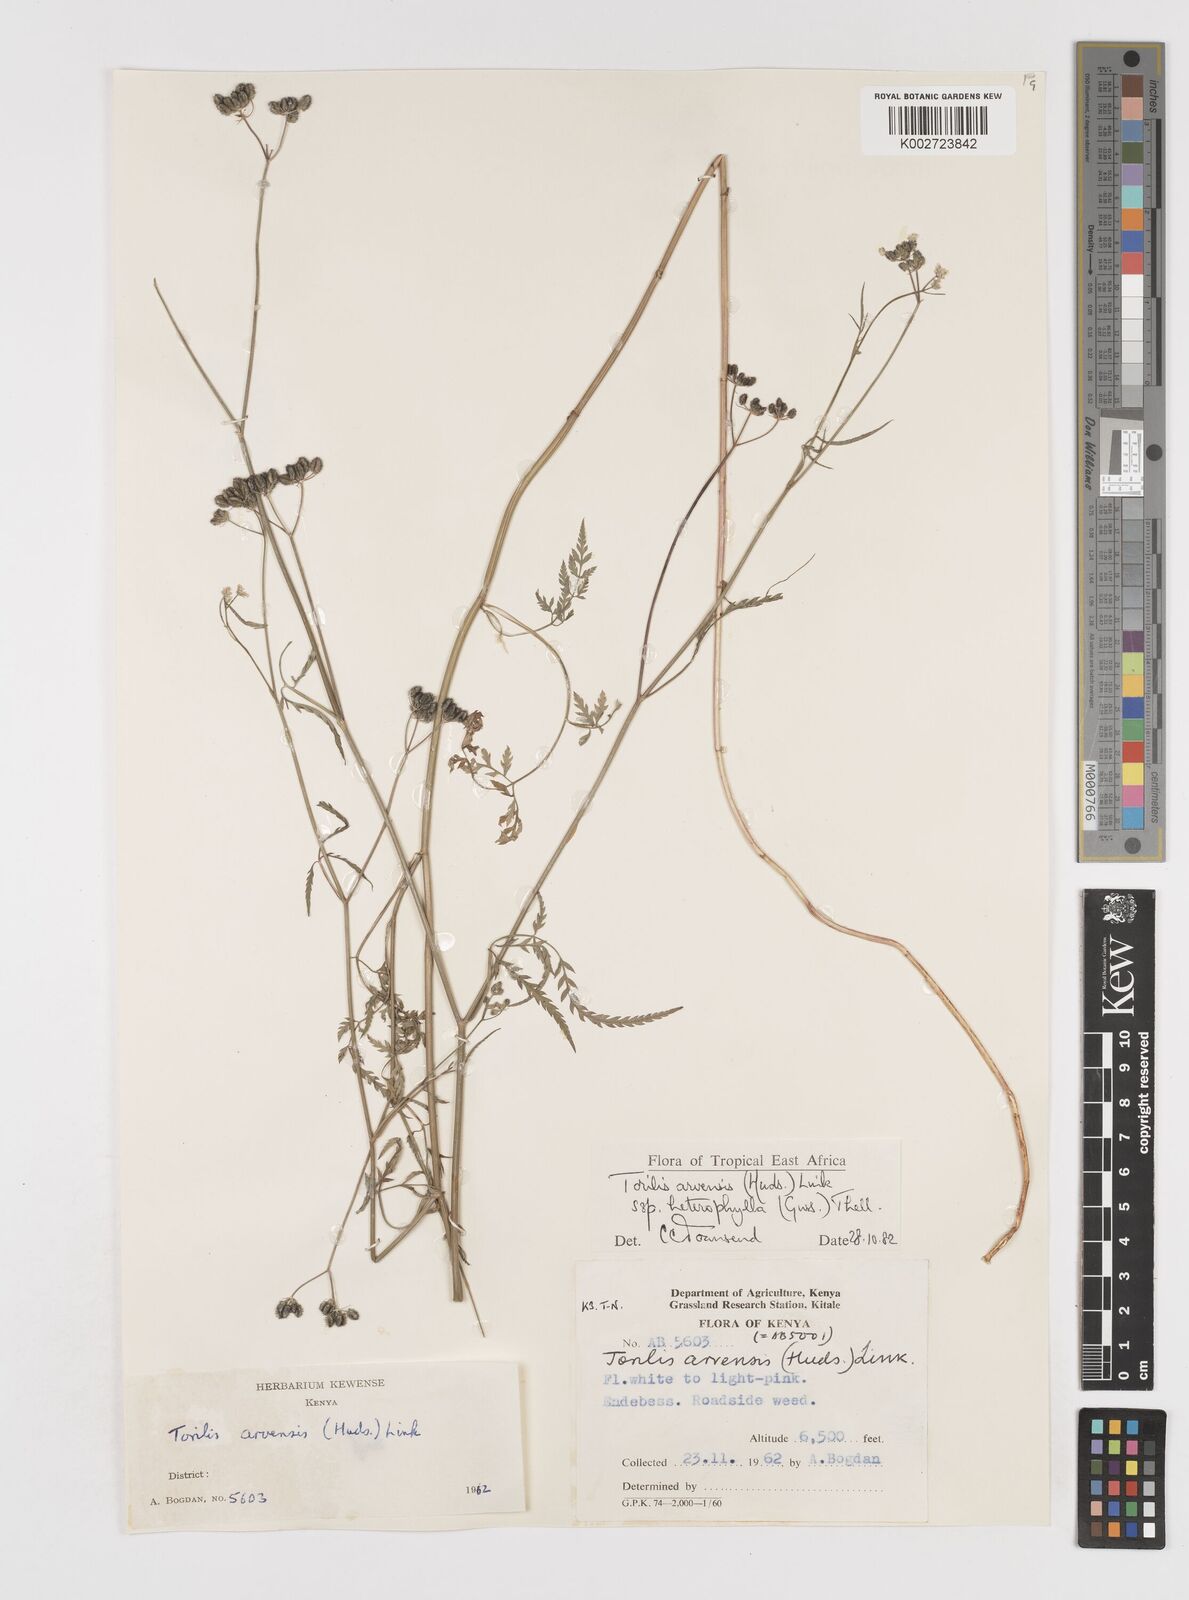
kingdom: Plantae
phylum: Tracheophyta
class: Magnoliopsida
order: Apiales
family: Apiaceae
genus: Torilis
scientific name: Torilis arvensis
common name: Spreading hedge-parsley
